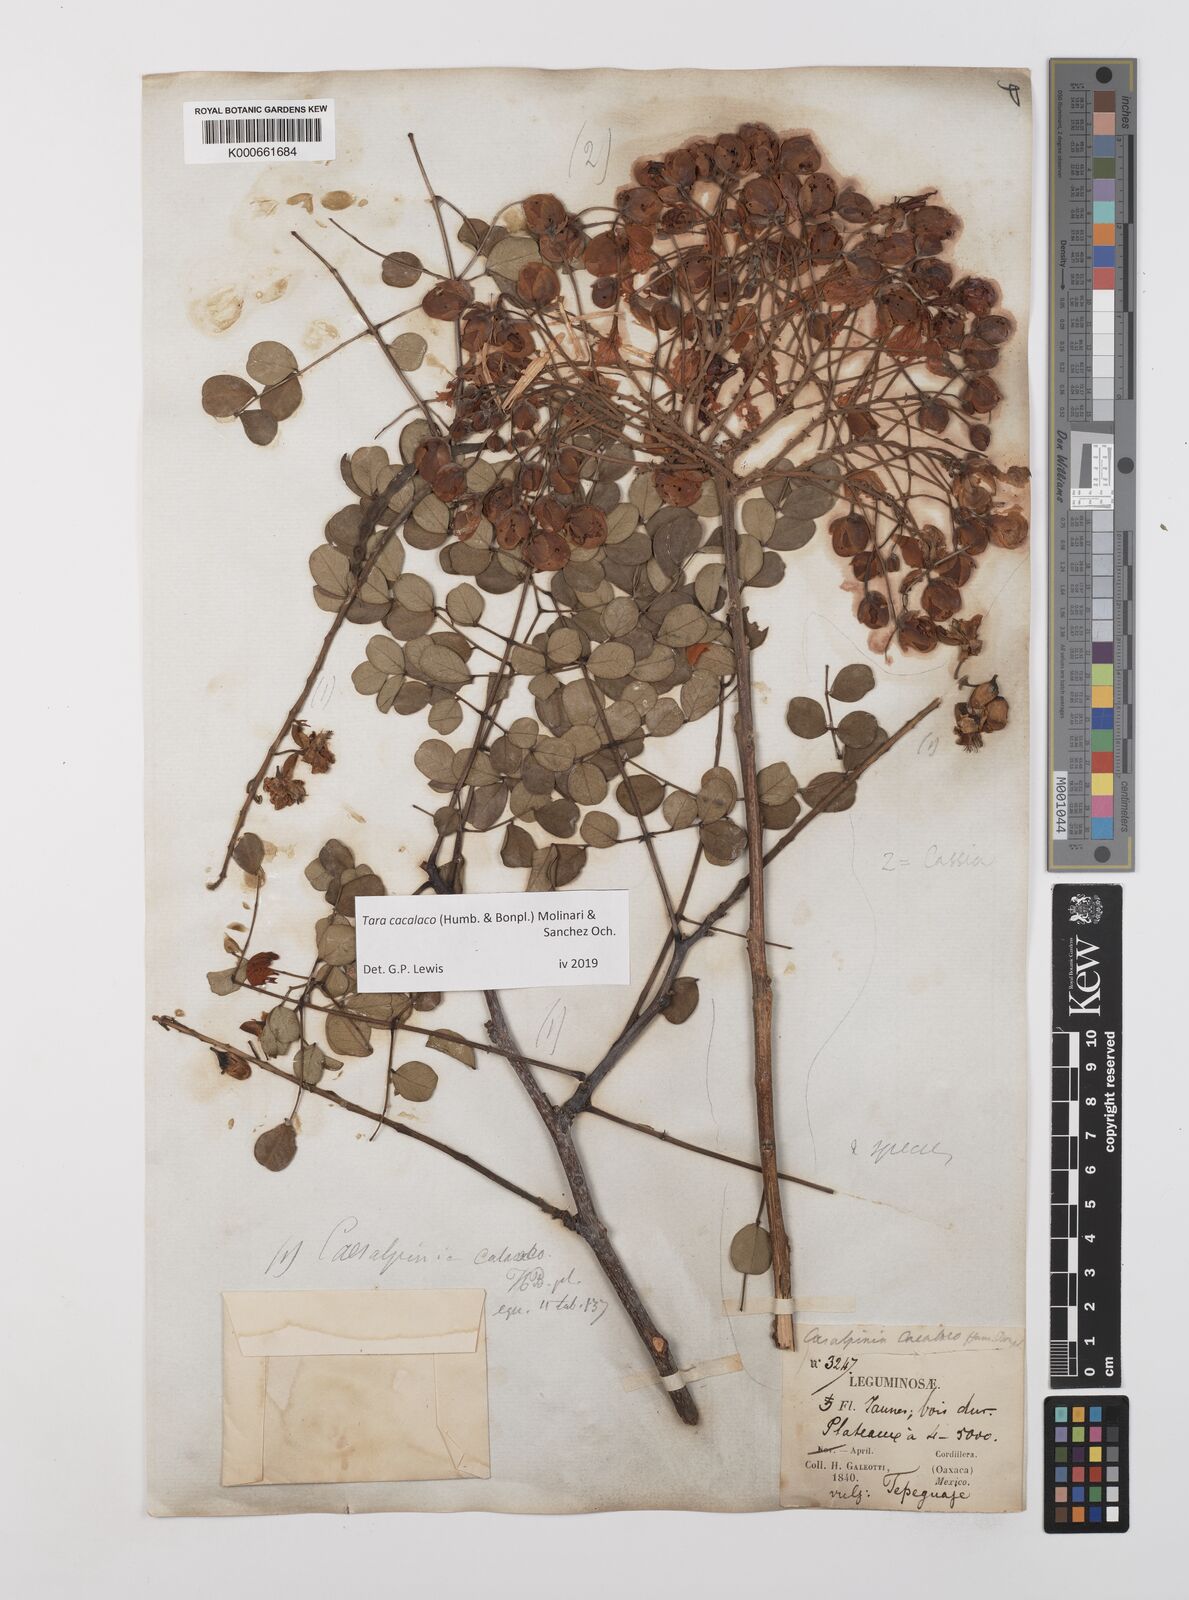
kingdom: Plantae
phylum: Tracheophyta
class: Magnoliopsida
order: Fabales
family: Fabaceae
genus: Tara
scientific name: Tara cacalaco
